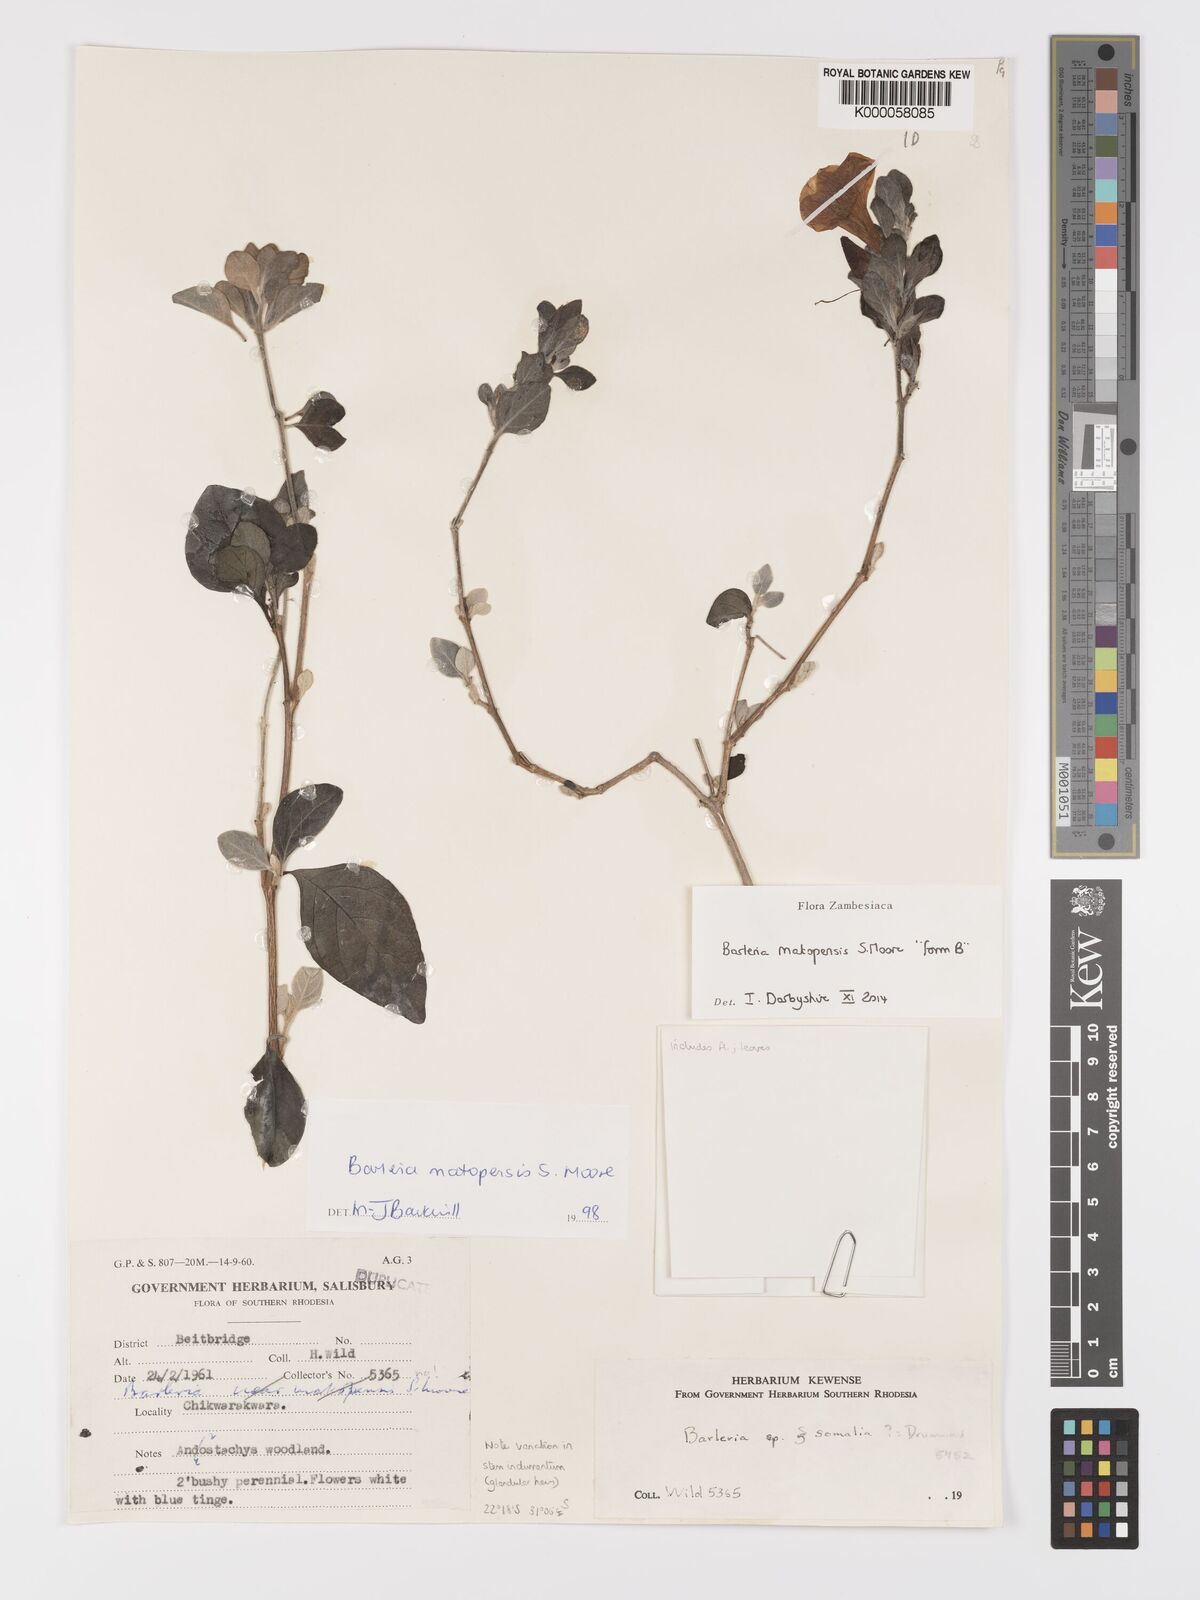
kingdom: Plantae
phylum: Tracheophyta
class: Magnoliopsida
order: Lamiales
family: Acanthaceae
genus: Barleria
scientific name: Barleria matopensis
